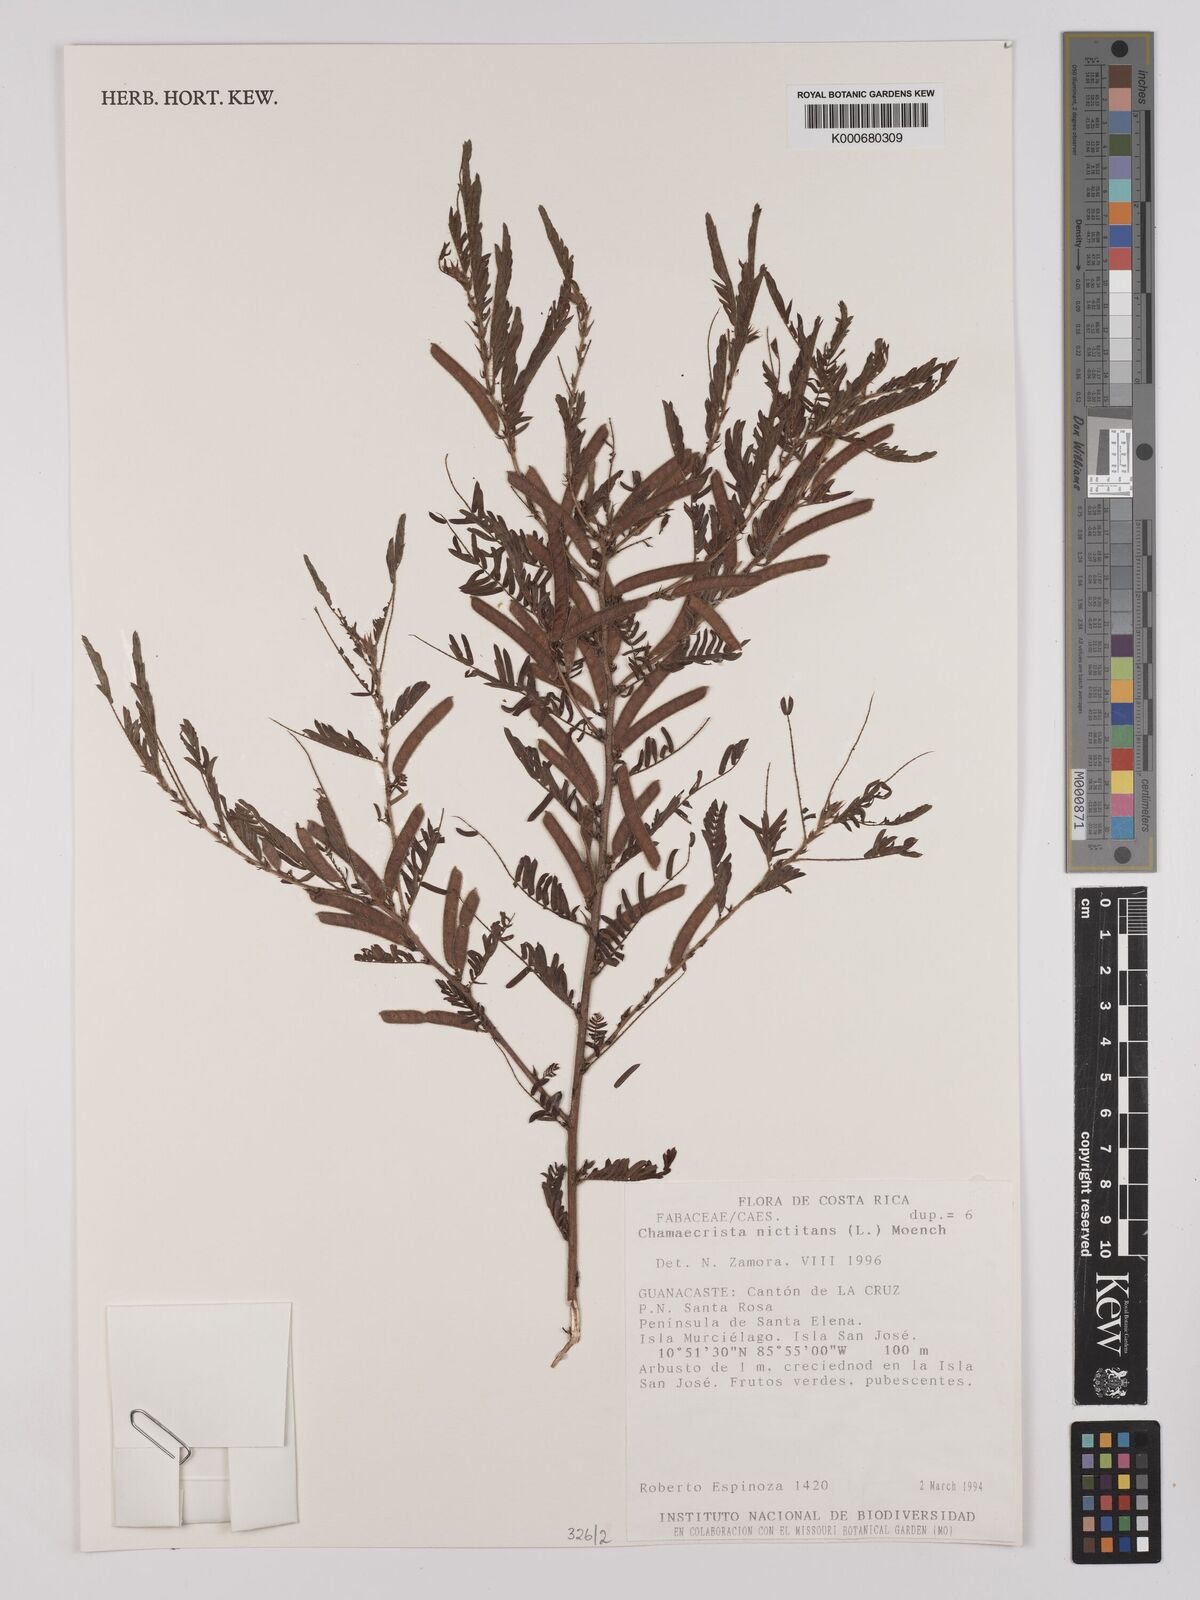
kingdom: Plantae
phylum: Tracheophyta
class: Magnoliopsida
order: Fabales
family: Fabaceae
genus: Chamaecrista
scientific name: Chamaecrista nictitans
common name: Sensitive cassia
